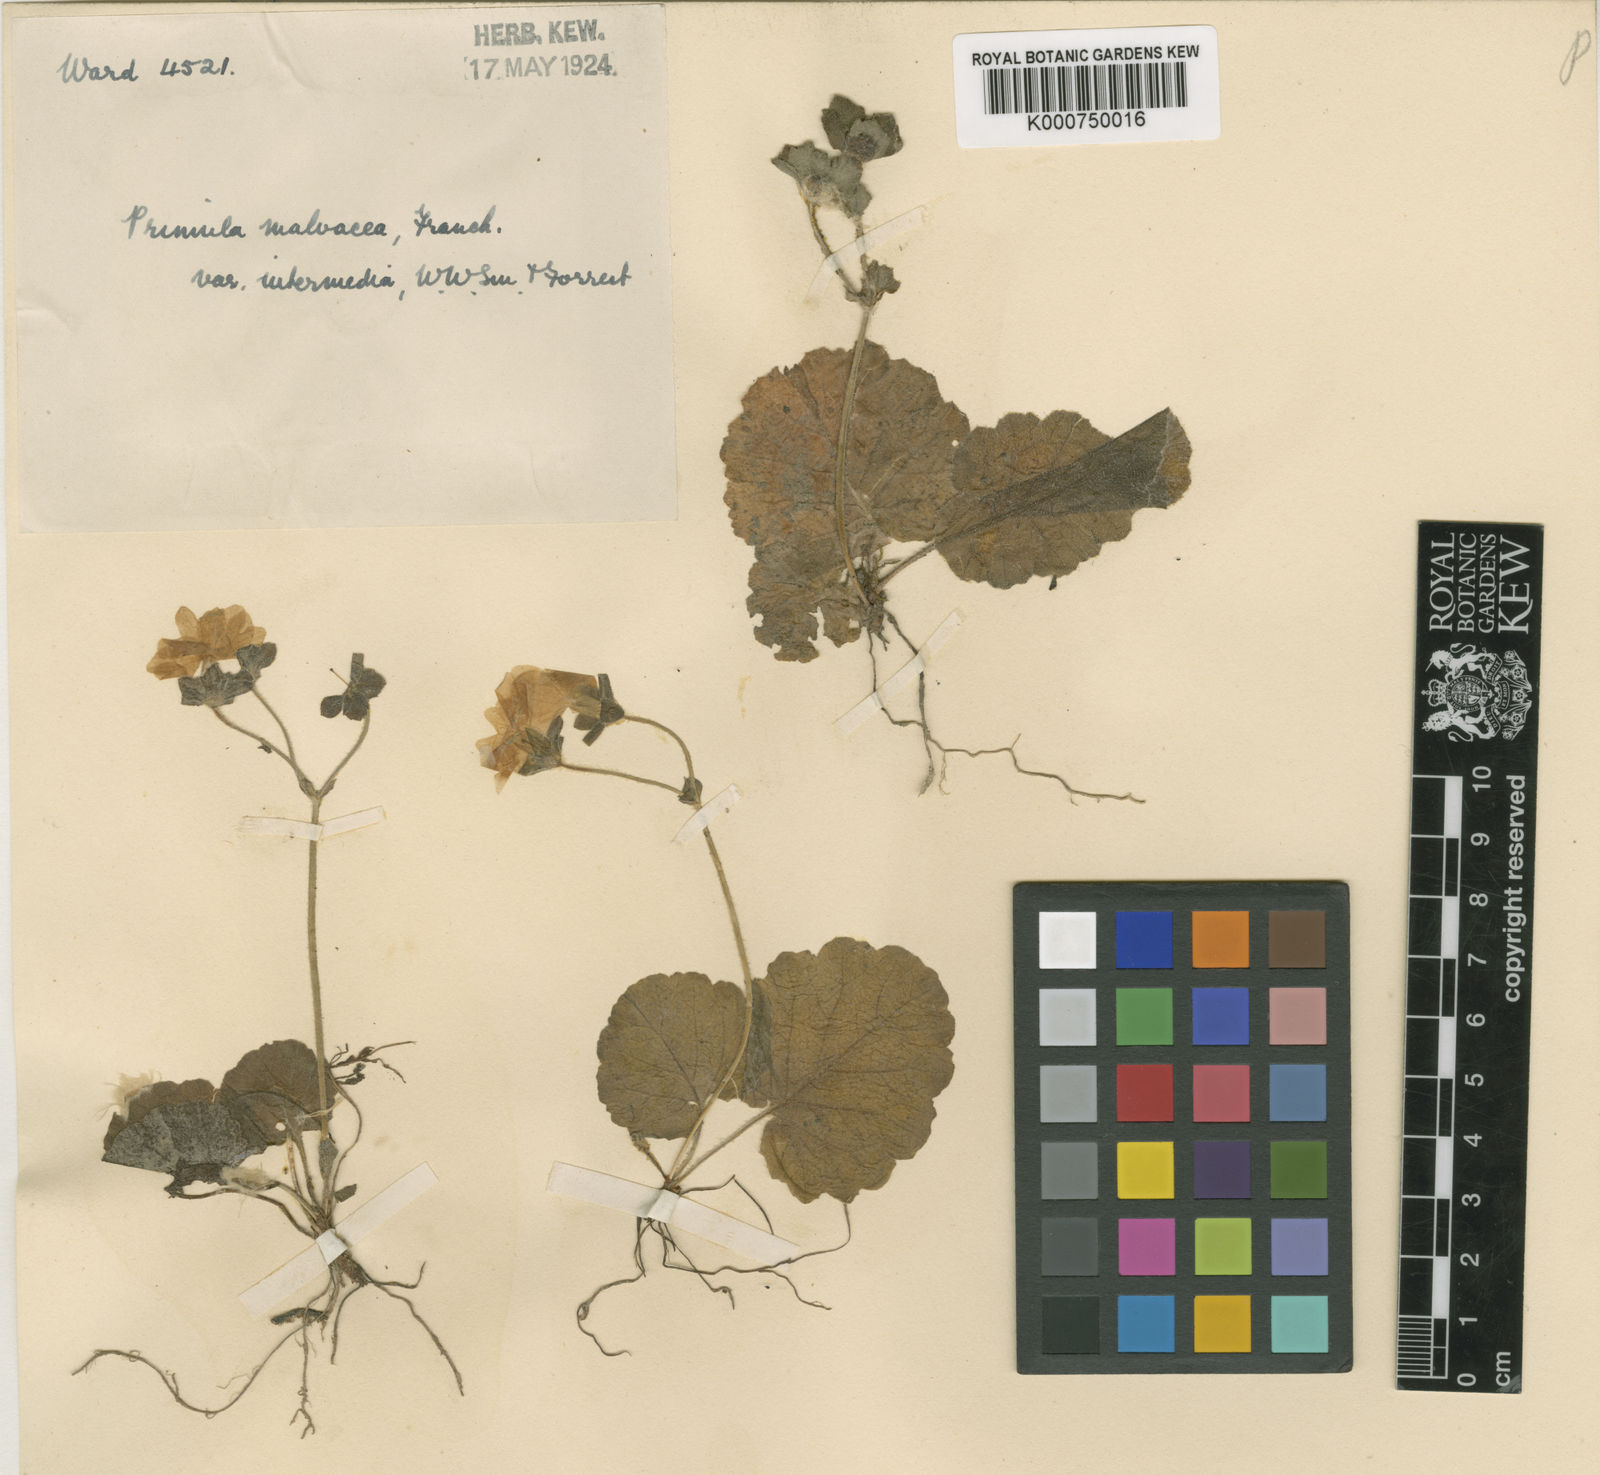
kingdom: Plantae
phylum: Tracheophyta
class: Magnoliopsida
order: Ericales
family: Primulaceae
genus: Primula
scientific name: Primula malvacea
